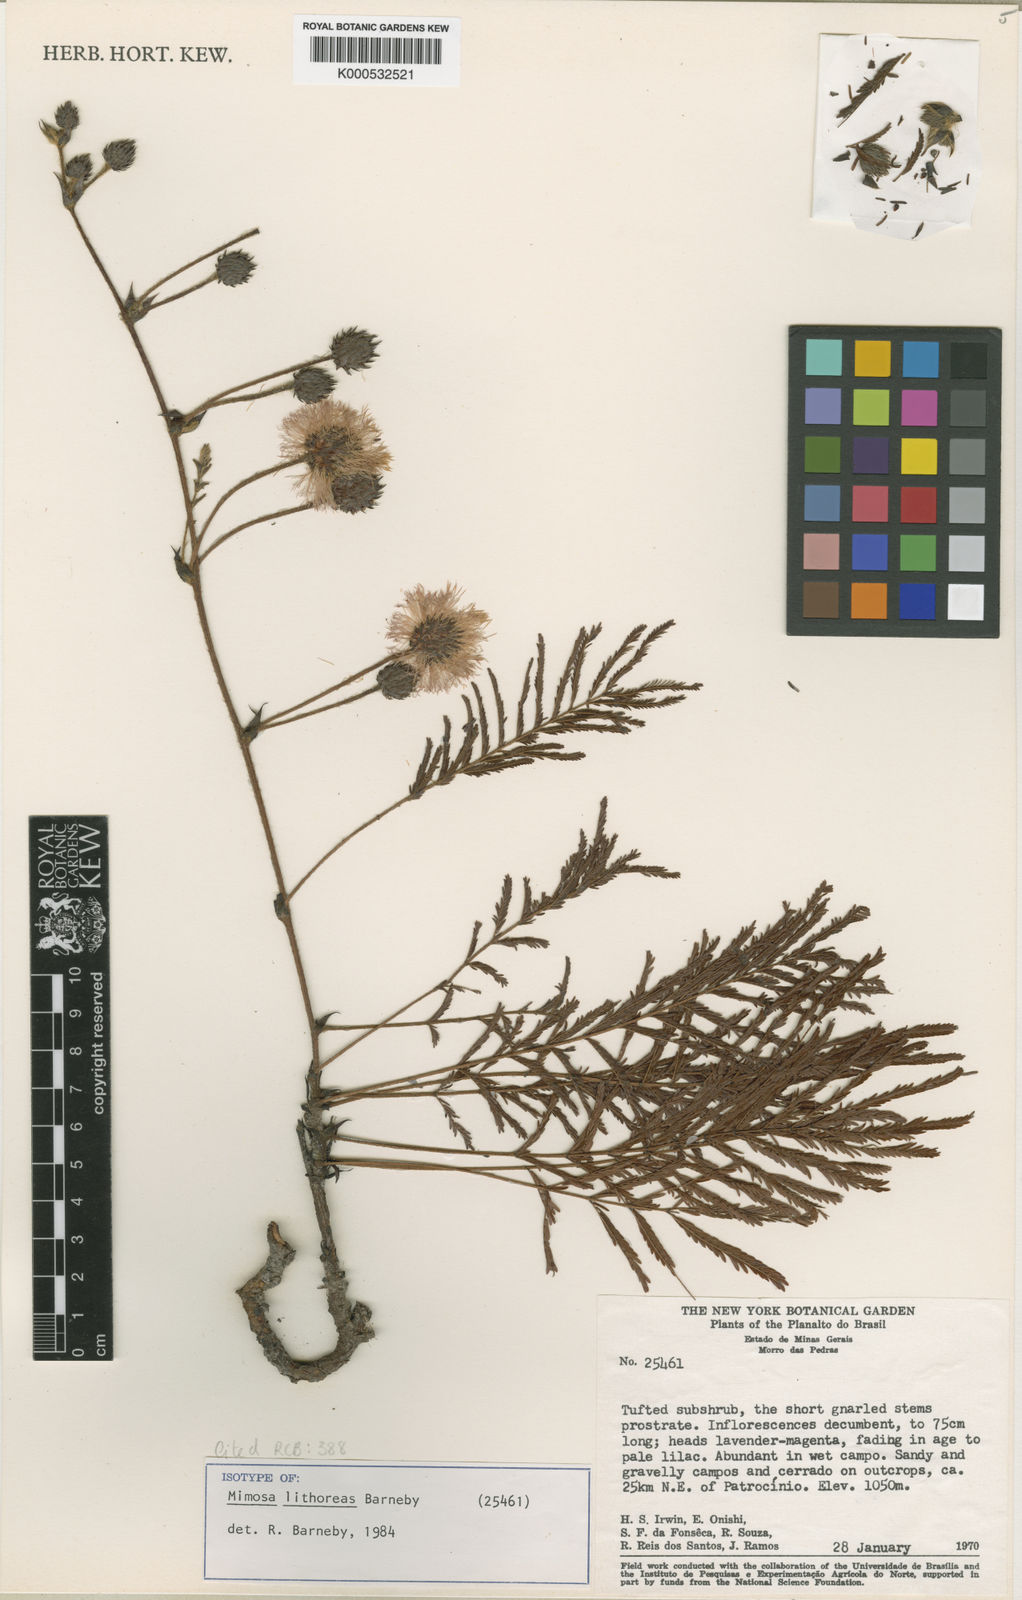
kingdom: Plantae
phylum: Tracheophyta
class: Magnoliopsida
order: Fabales
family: Fabaceae
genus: Mimosa
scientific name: Mimosa lithoreas
